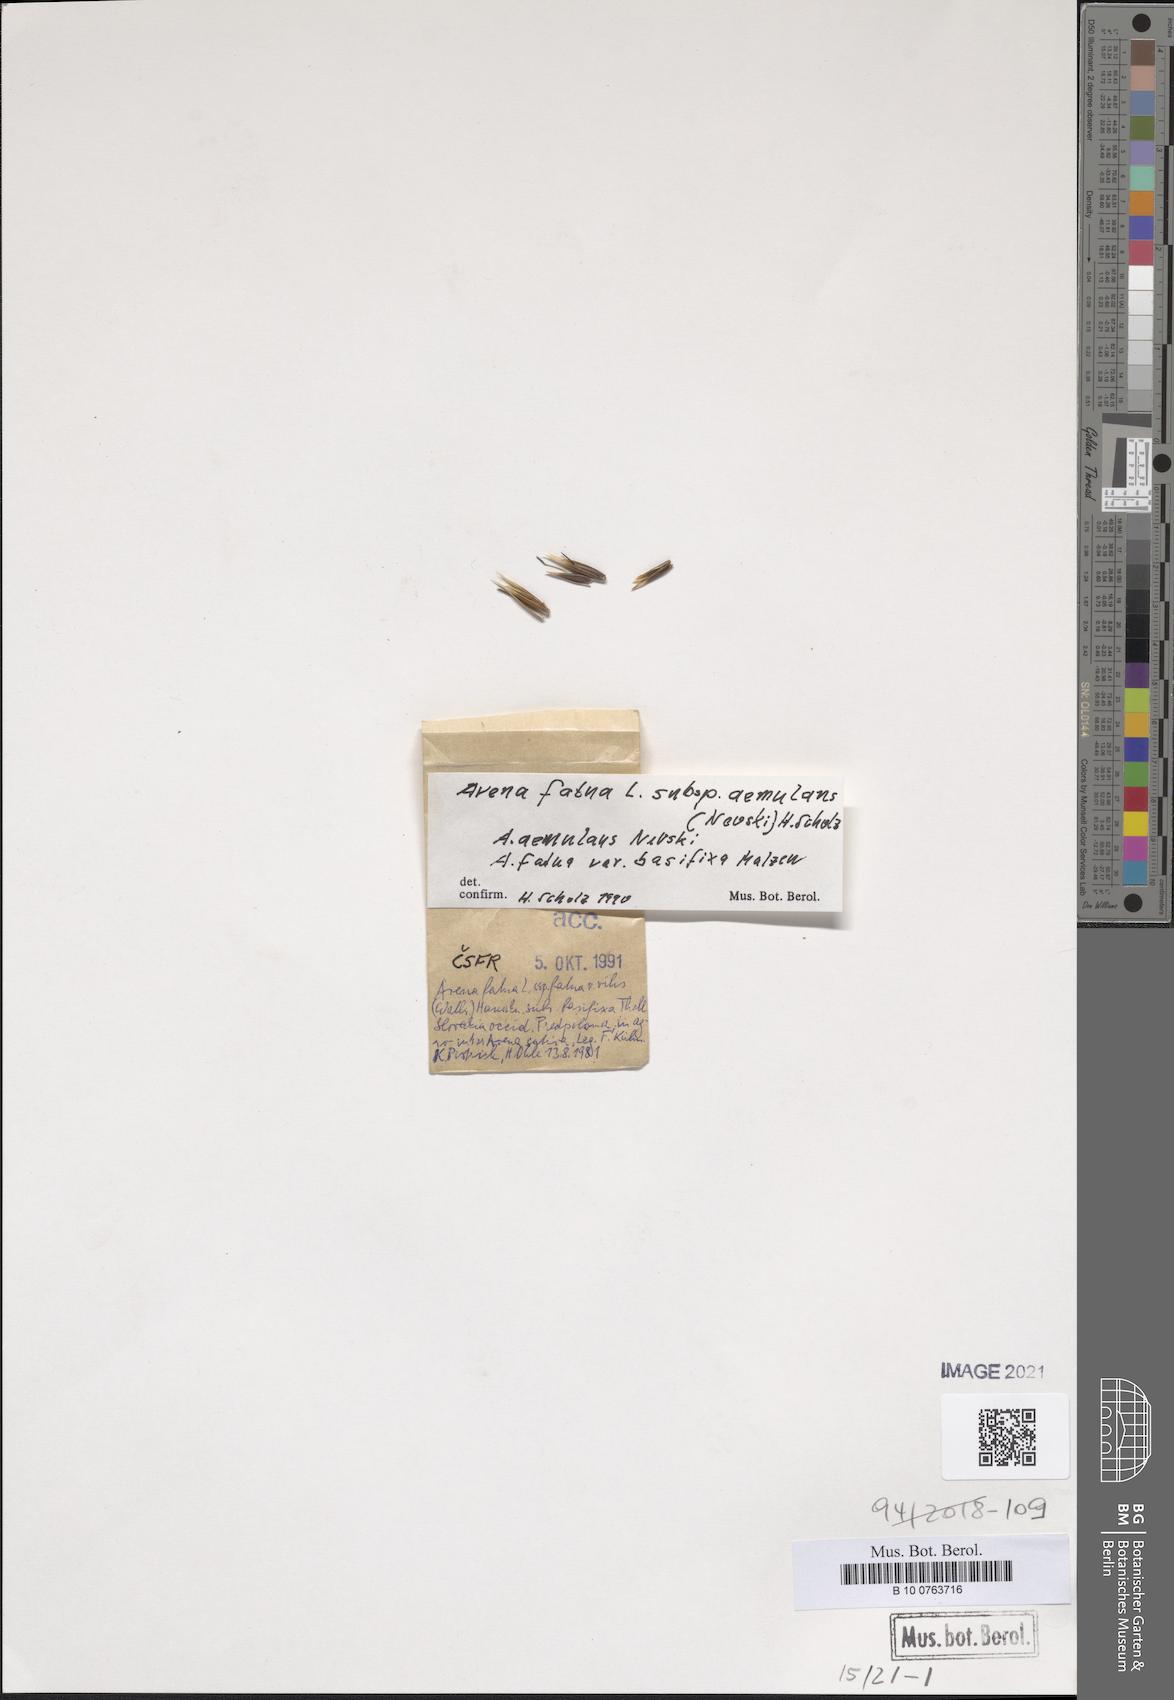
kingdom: Plantae
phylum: Tracheophyta
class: Liliopsida
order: Poales
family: Poaceae
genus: Avena
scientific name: Avena aemulans
